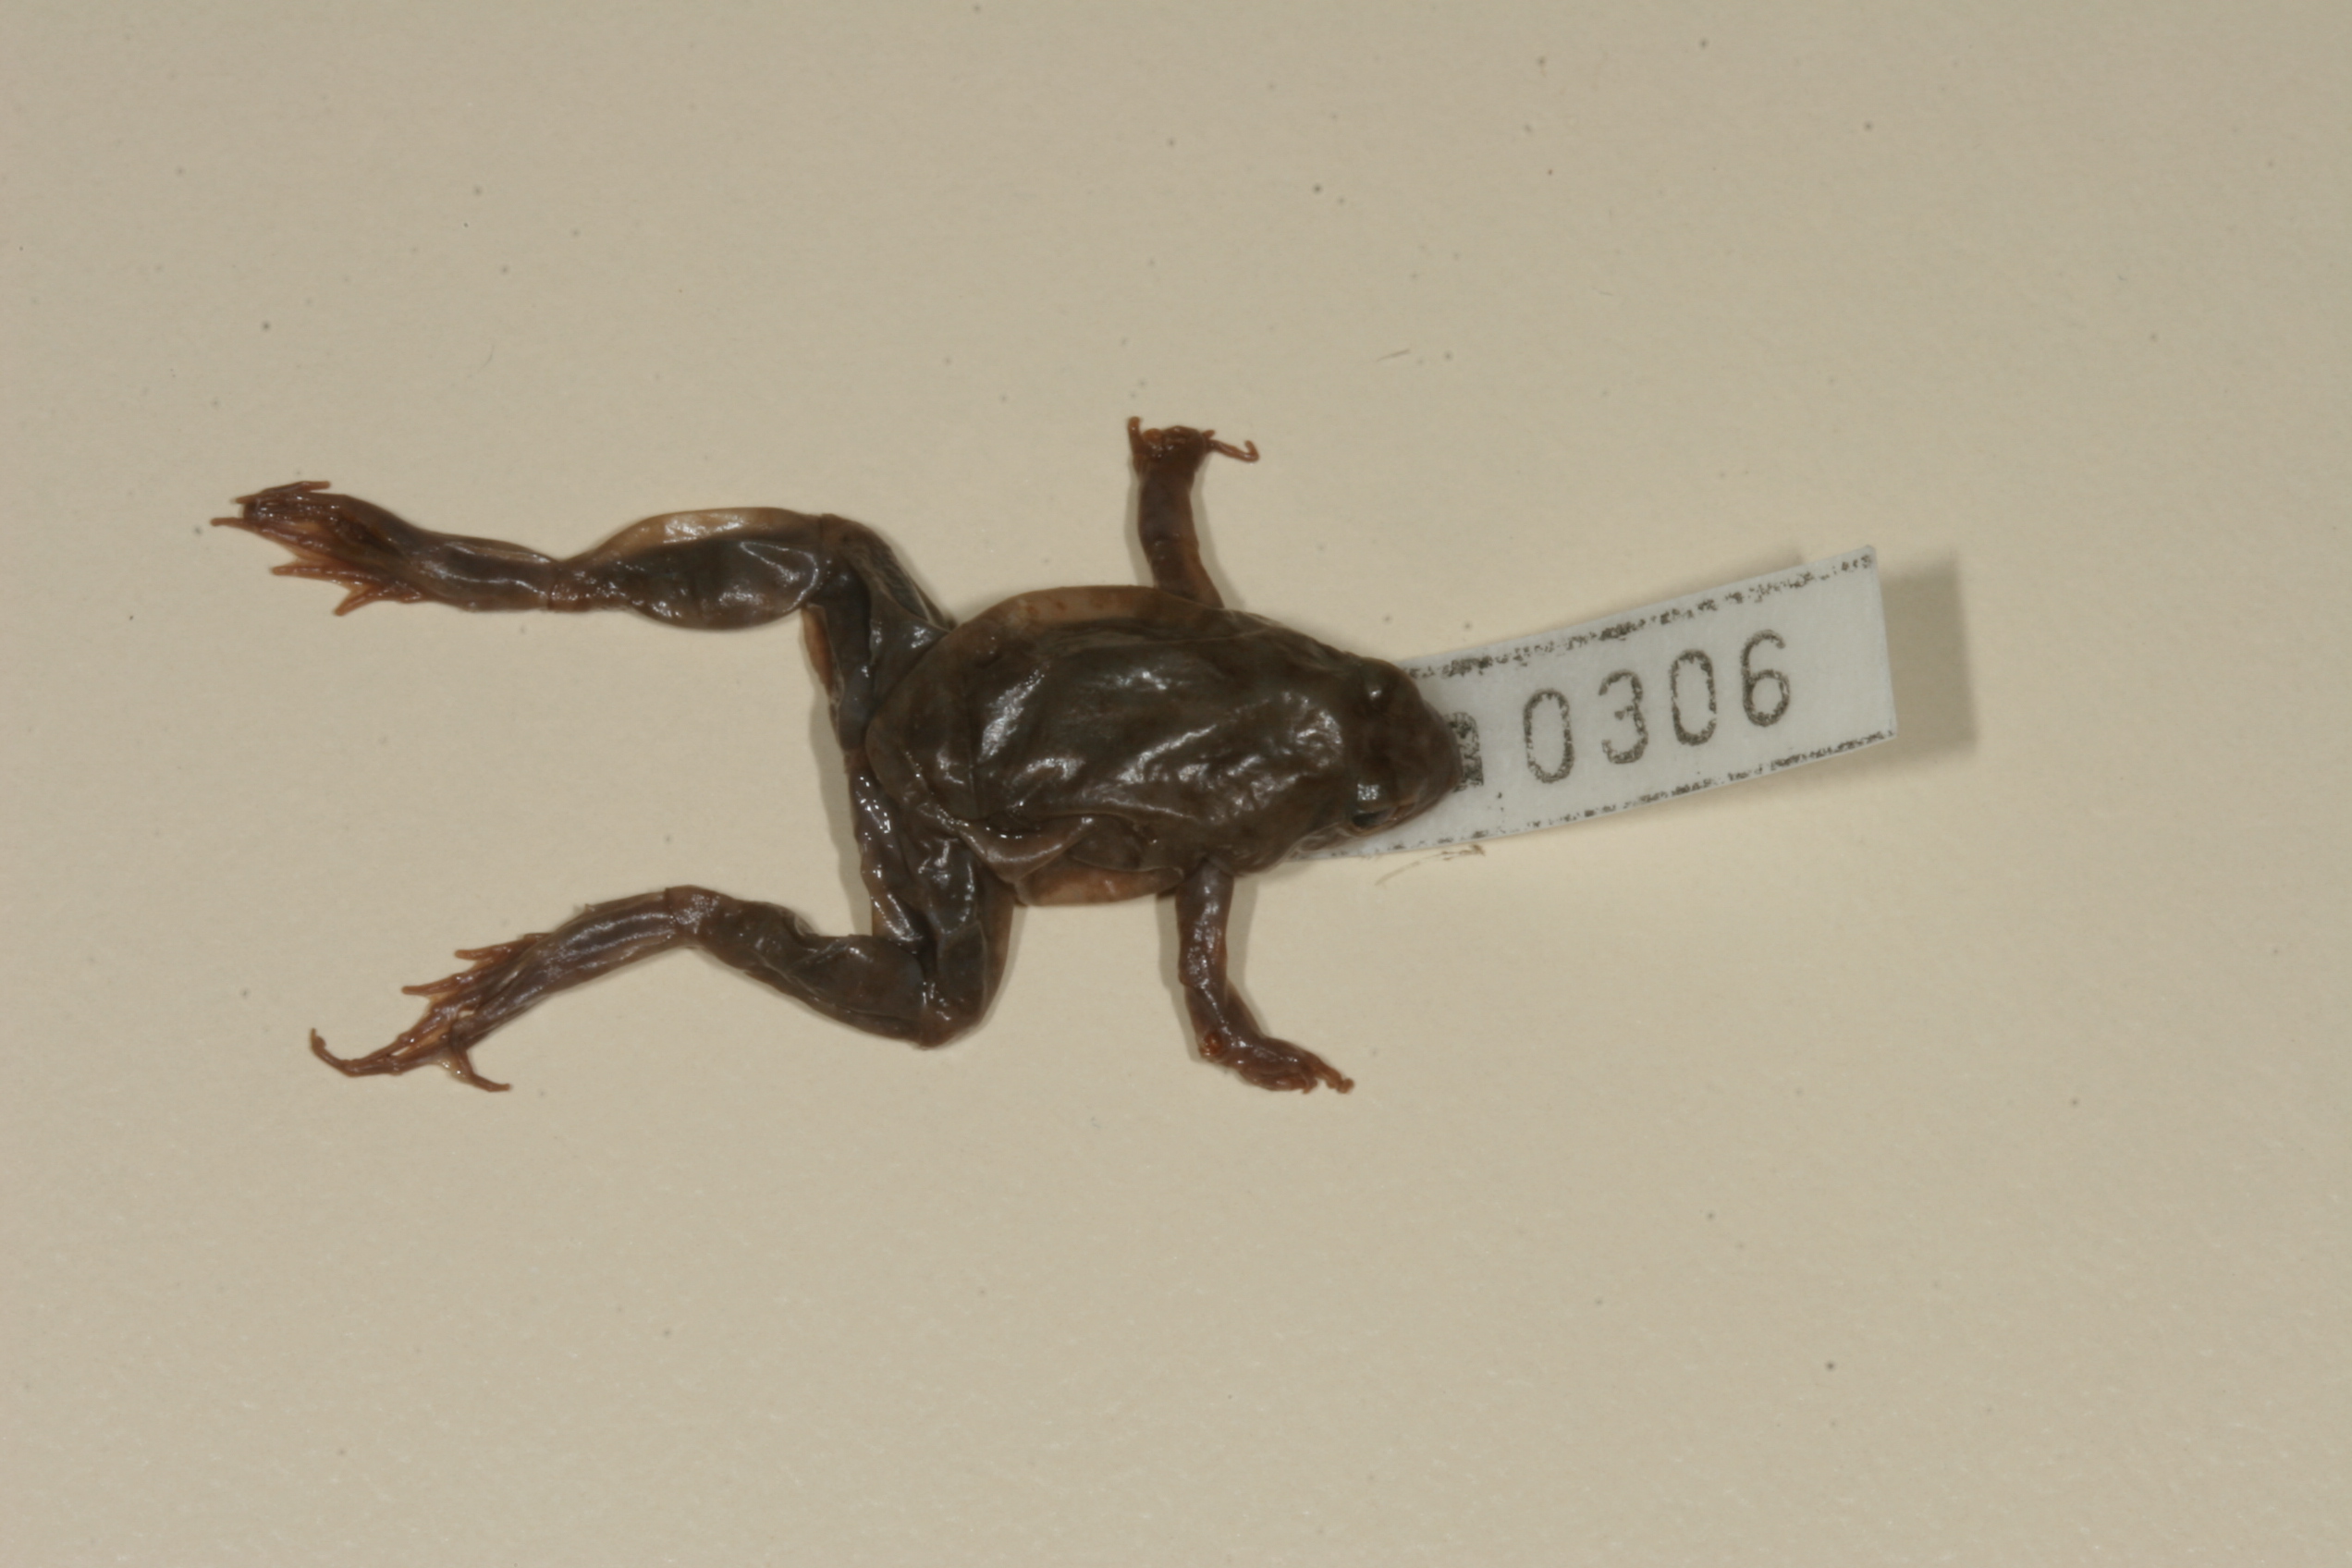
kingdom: Animalia
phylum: Chordata
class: Amphibia
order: Anura
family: Phrynobatrachidae
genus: Phrynobatrachus
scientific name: Phrynobatrachus natalensis
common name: Snoring puddle frog
